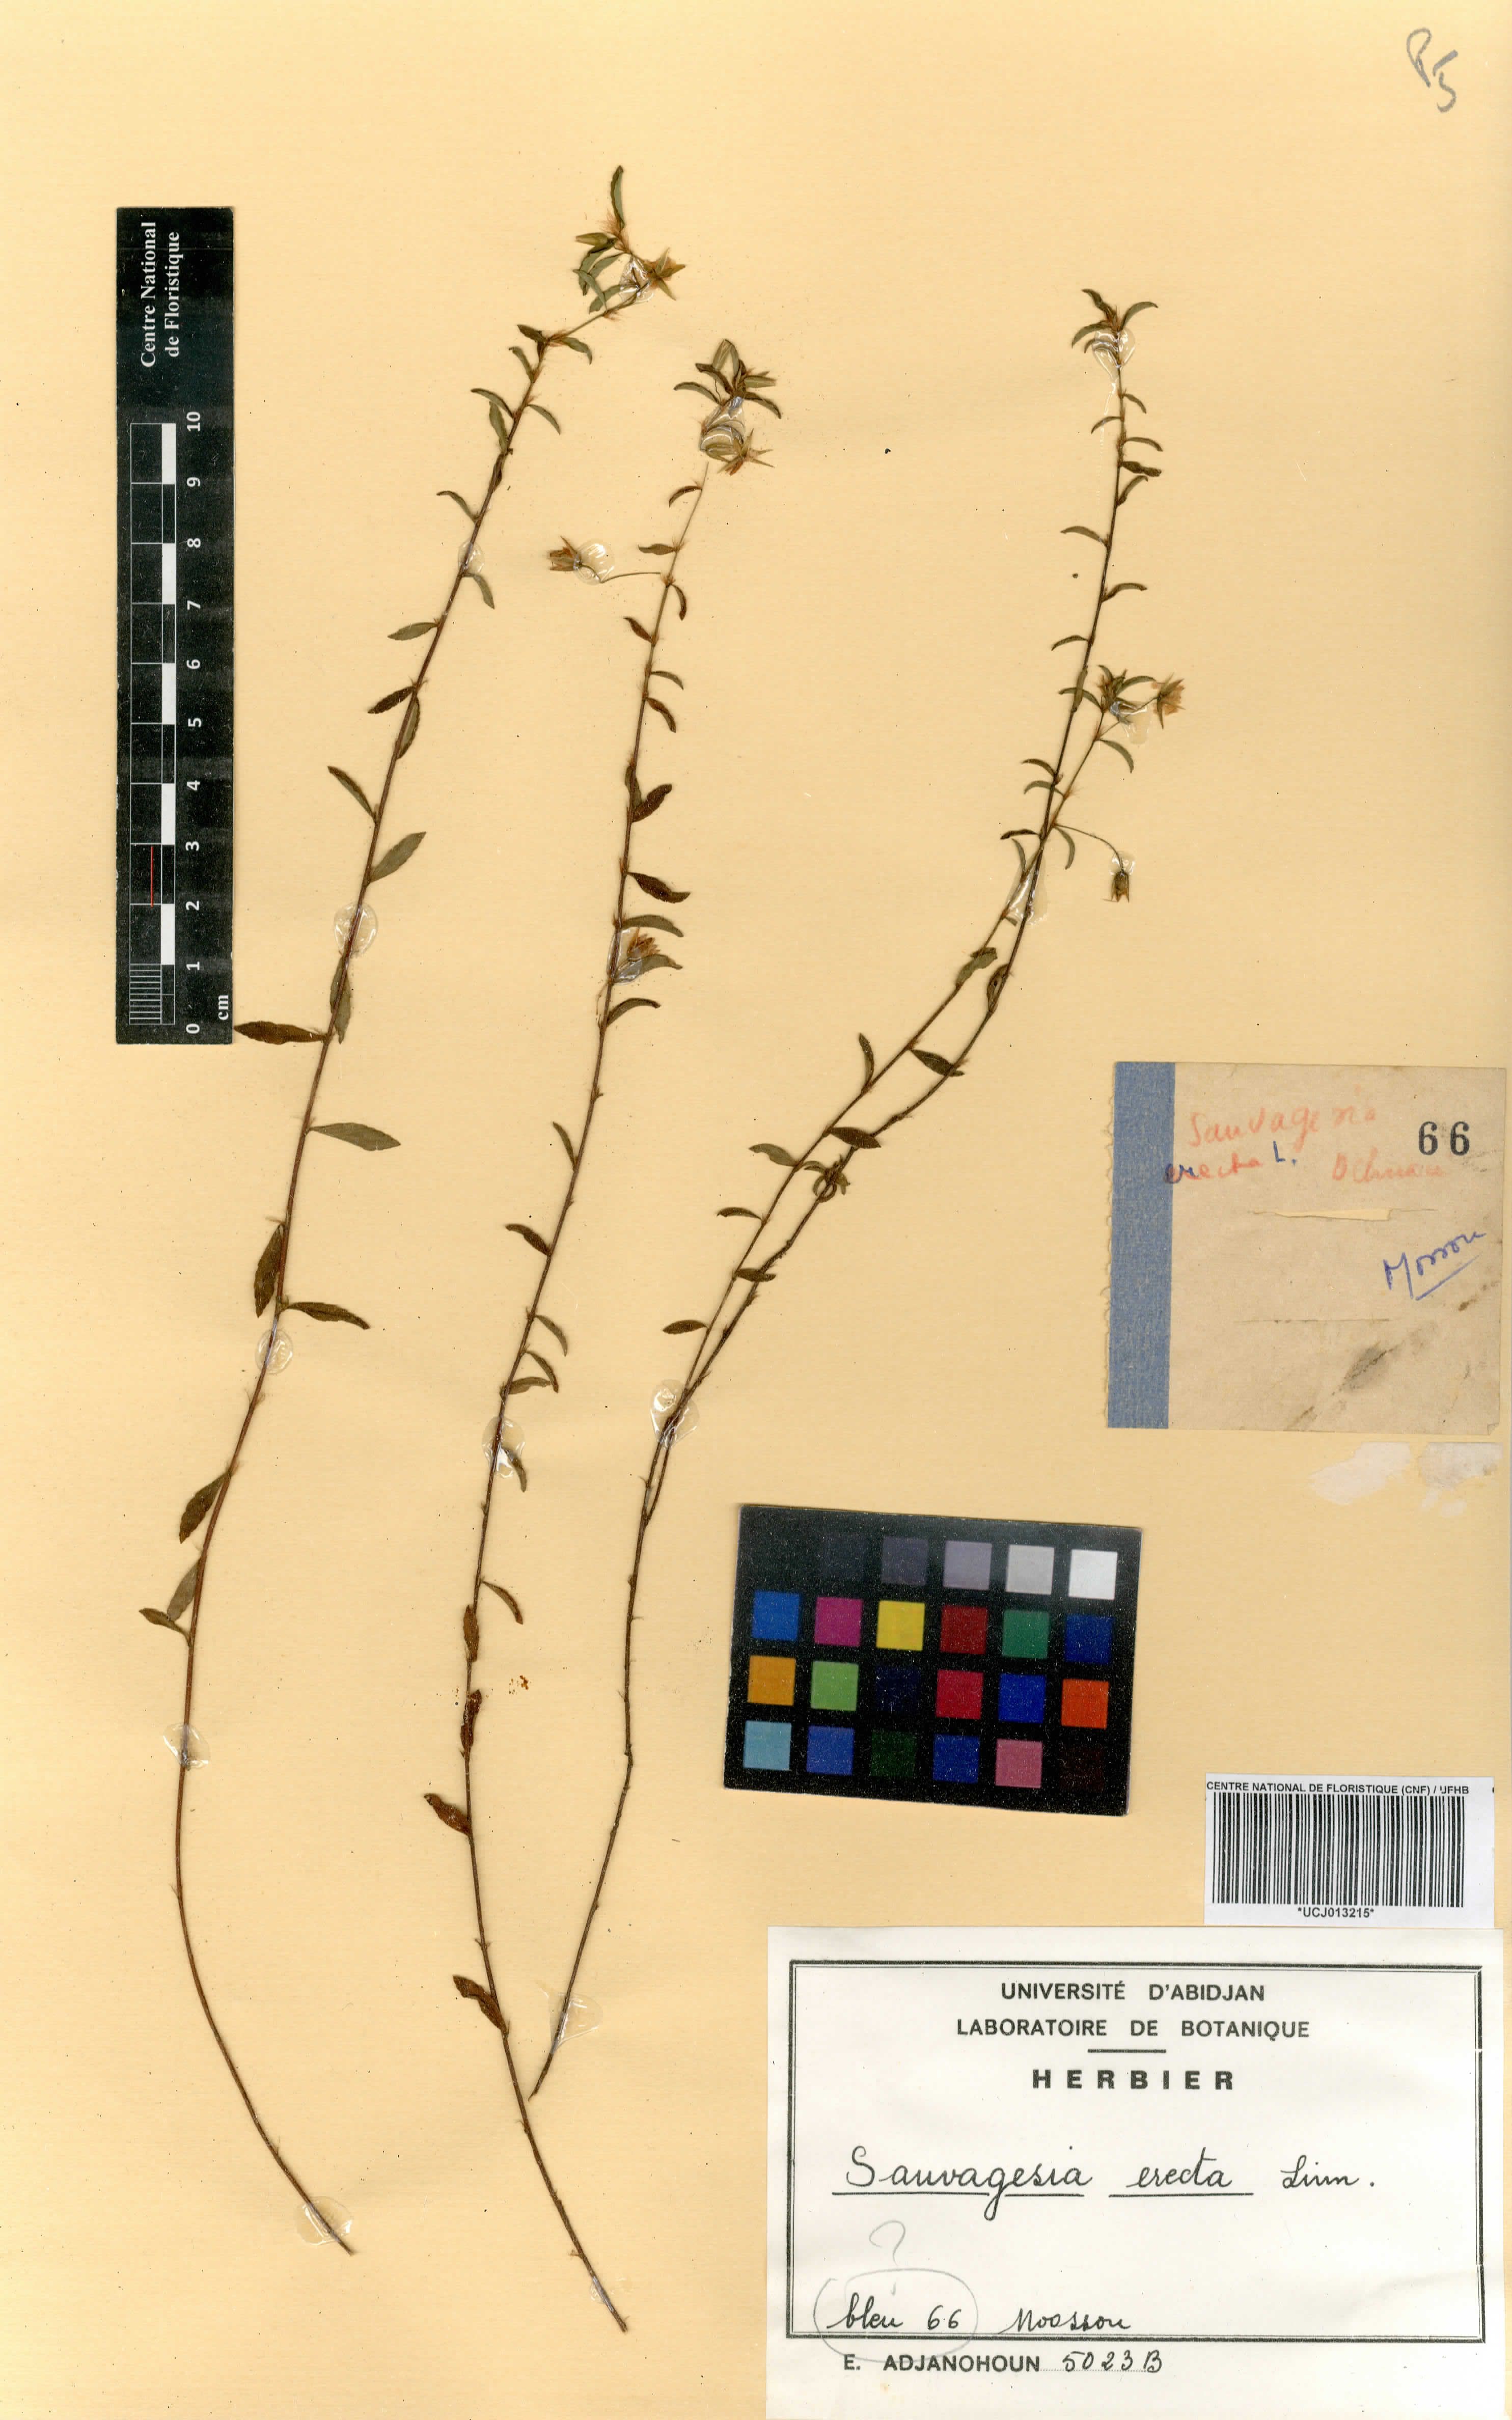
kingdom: Plantae
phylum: Tracheophyta
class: Magnoliopsida
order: Malpighiales
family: Ochnaceae
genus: Sauvagesia
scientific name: Sauvagesia erecta
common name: Creole tea
